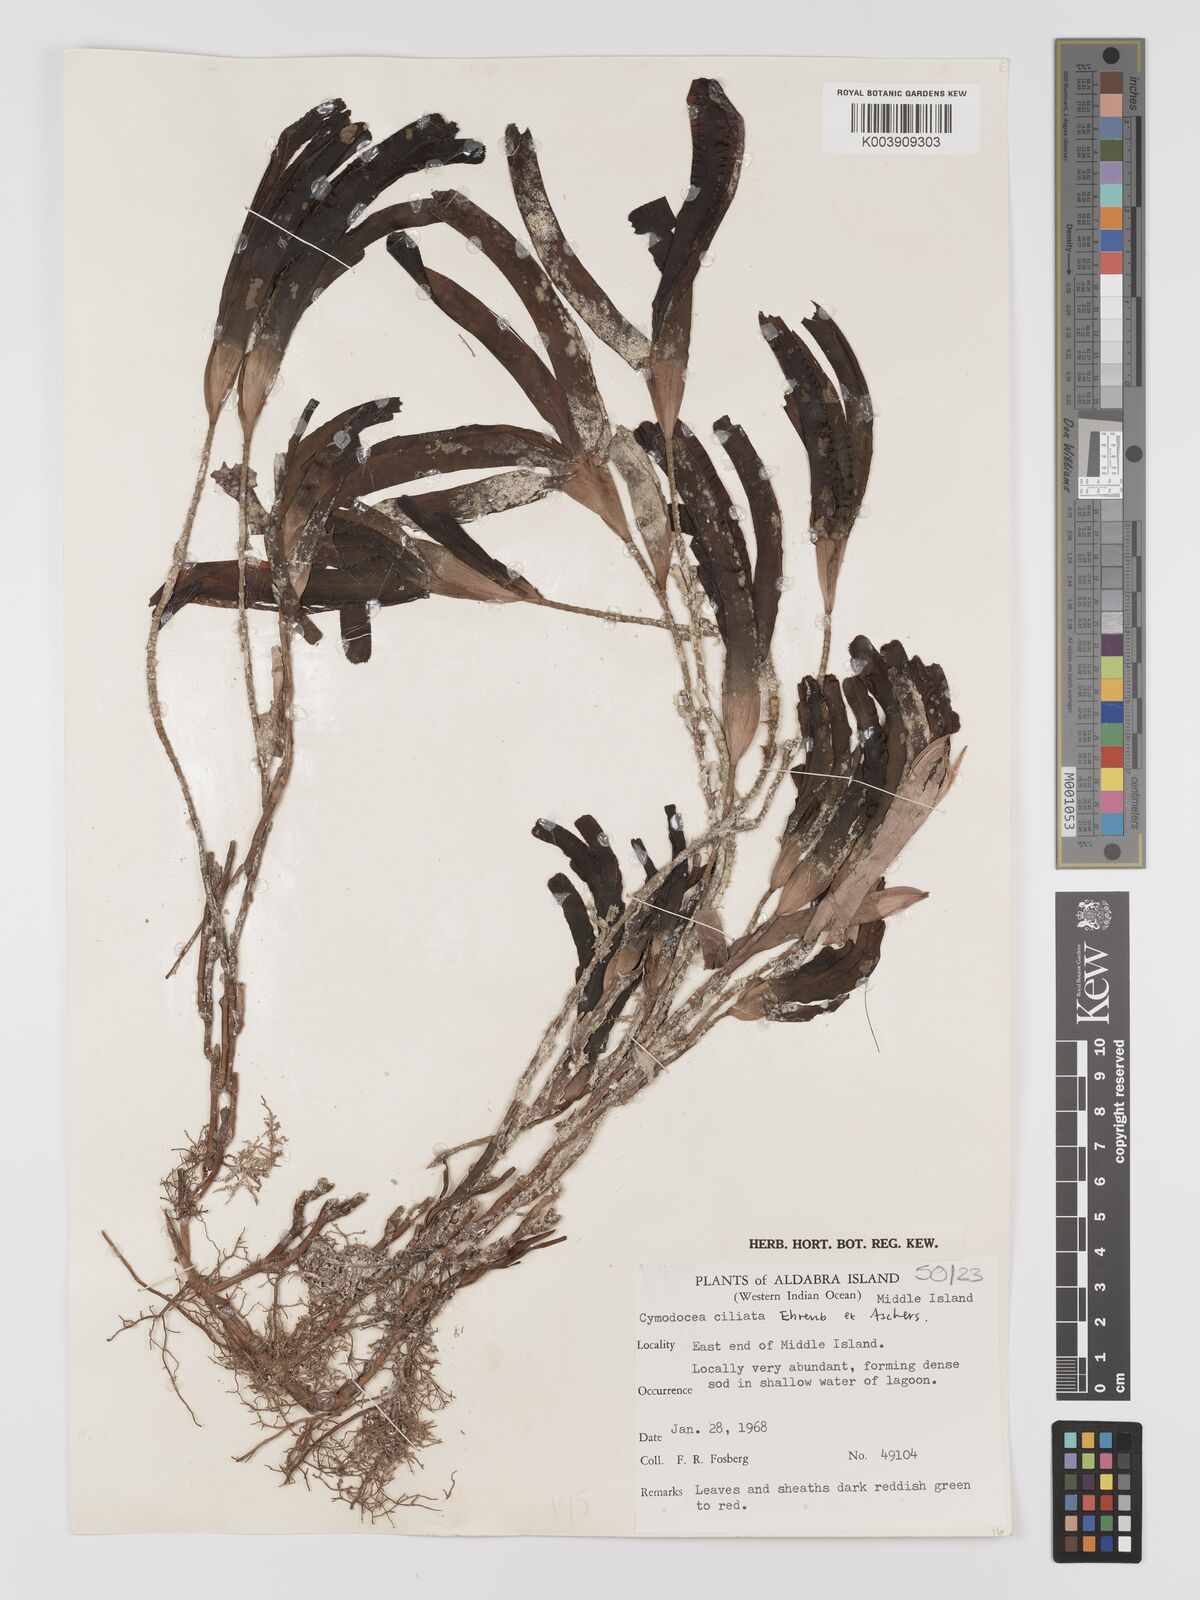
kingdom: Plantae
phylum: Tracheophyta
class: Liliopsida
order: Alismatales
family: Cymodoceaceae
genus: Thalassodendron
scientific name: Thalassodendron ciliatum
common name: Species code: tc
